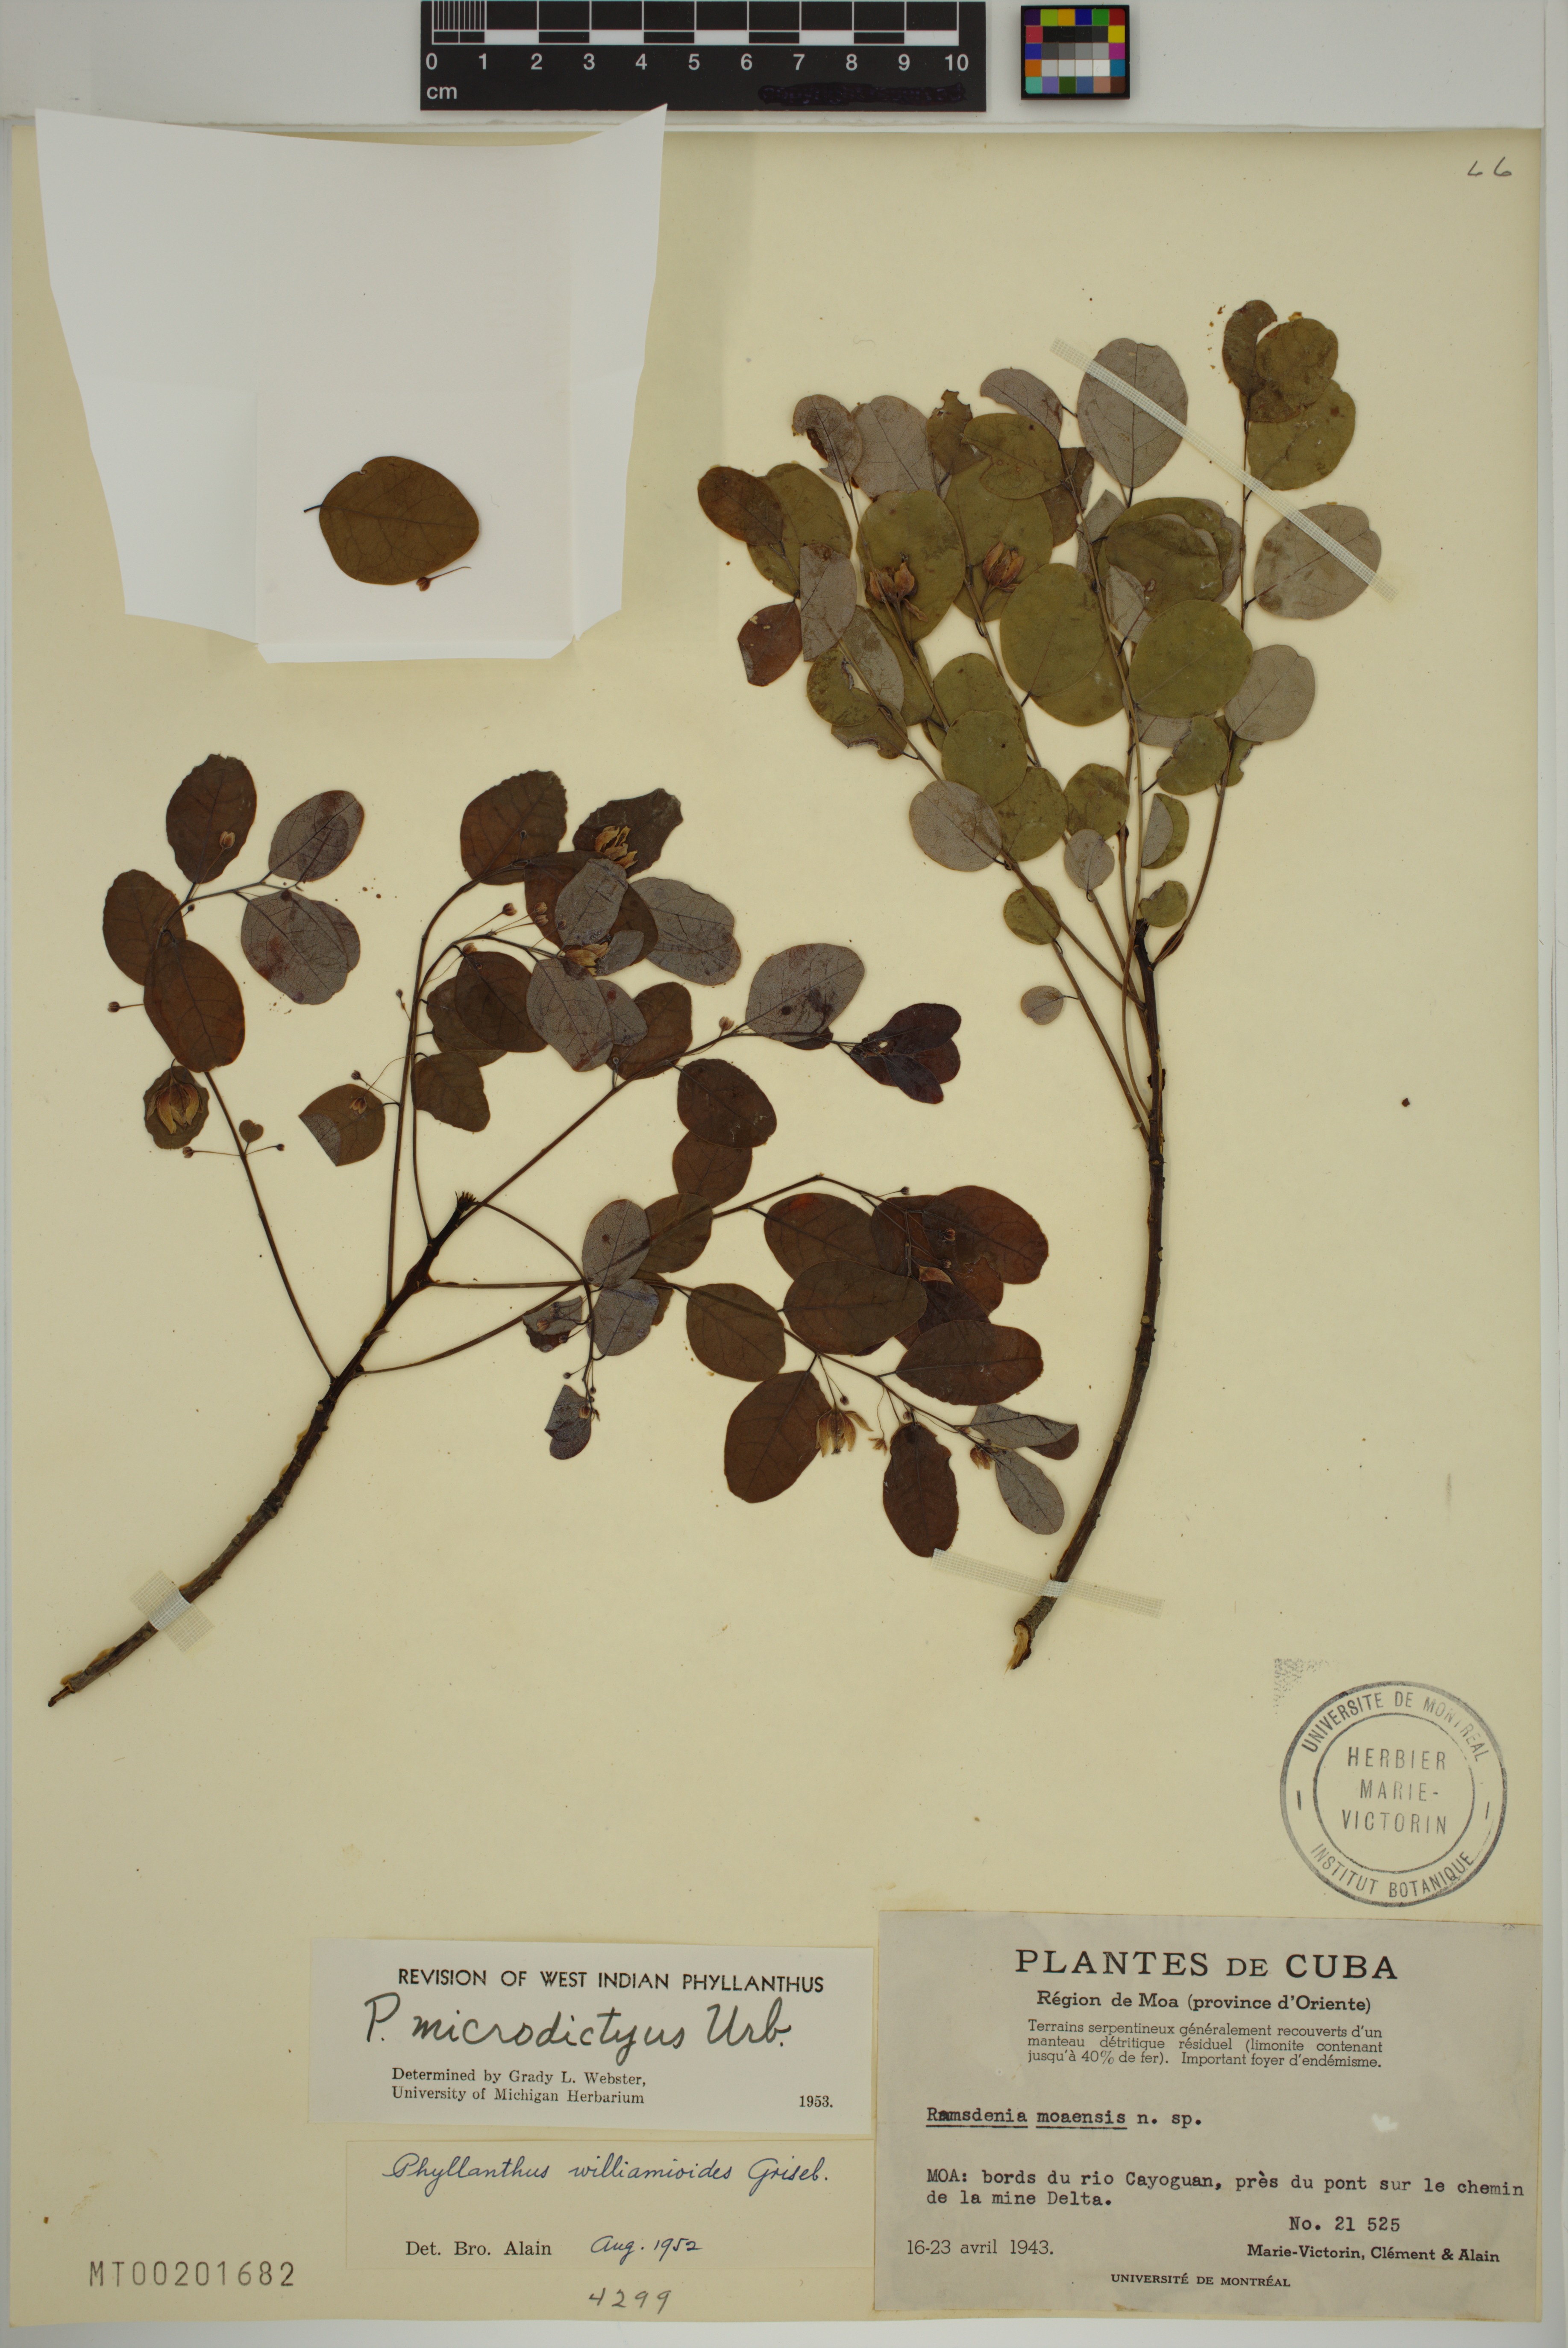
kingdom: Plantae
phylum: Tracheophyta
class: Magnoliopsida
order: Malpighiales
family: Phyllanthaceae
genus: Phyllanthus
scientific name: Phyllanthus microdictyus
